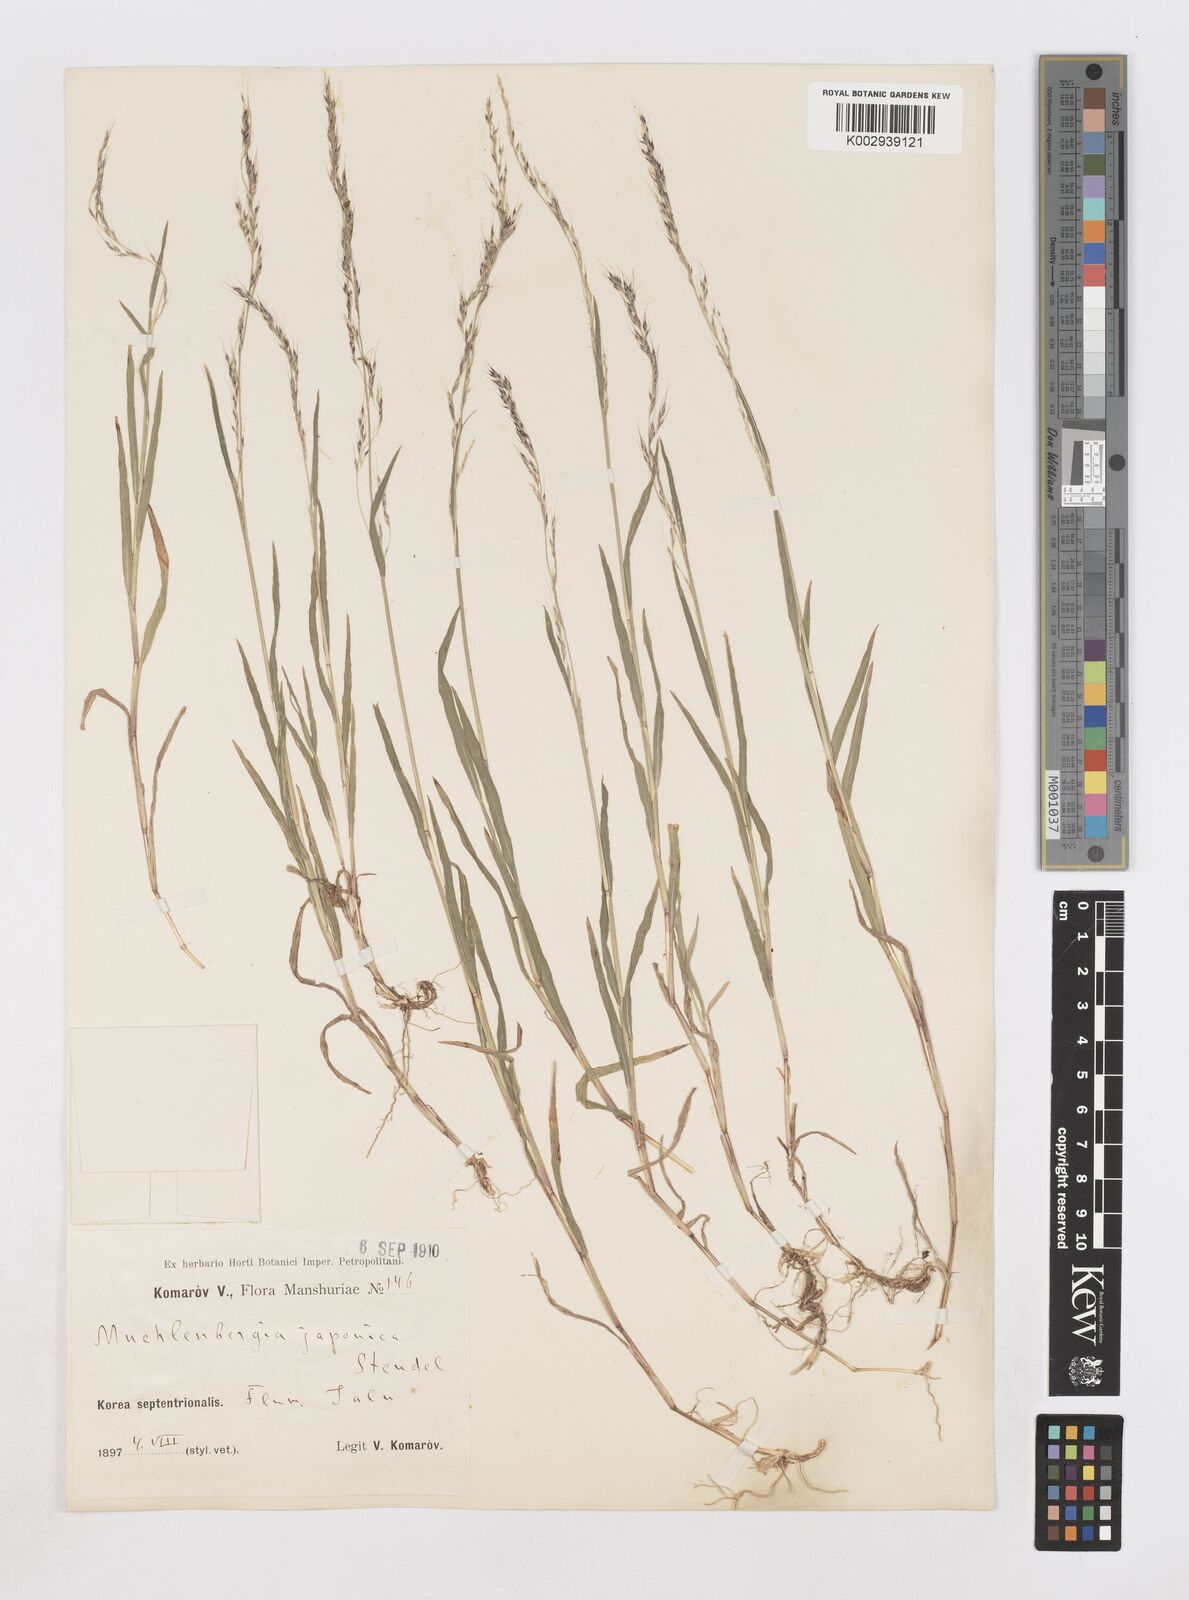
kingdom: Plantae
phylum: Tracheophyta
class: Liliopsida
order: Poales
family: Poaceae
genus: Muhlenbergia
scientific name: Muhlenbergia japonica
